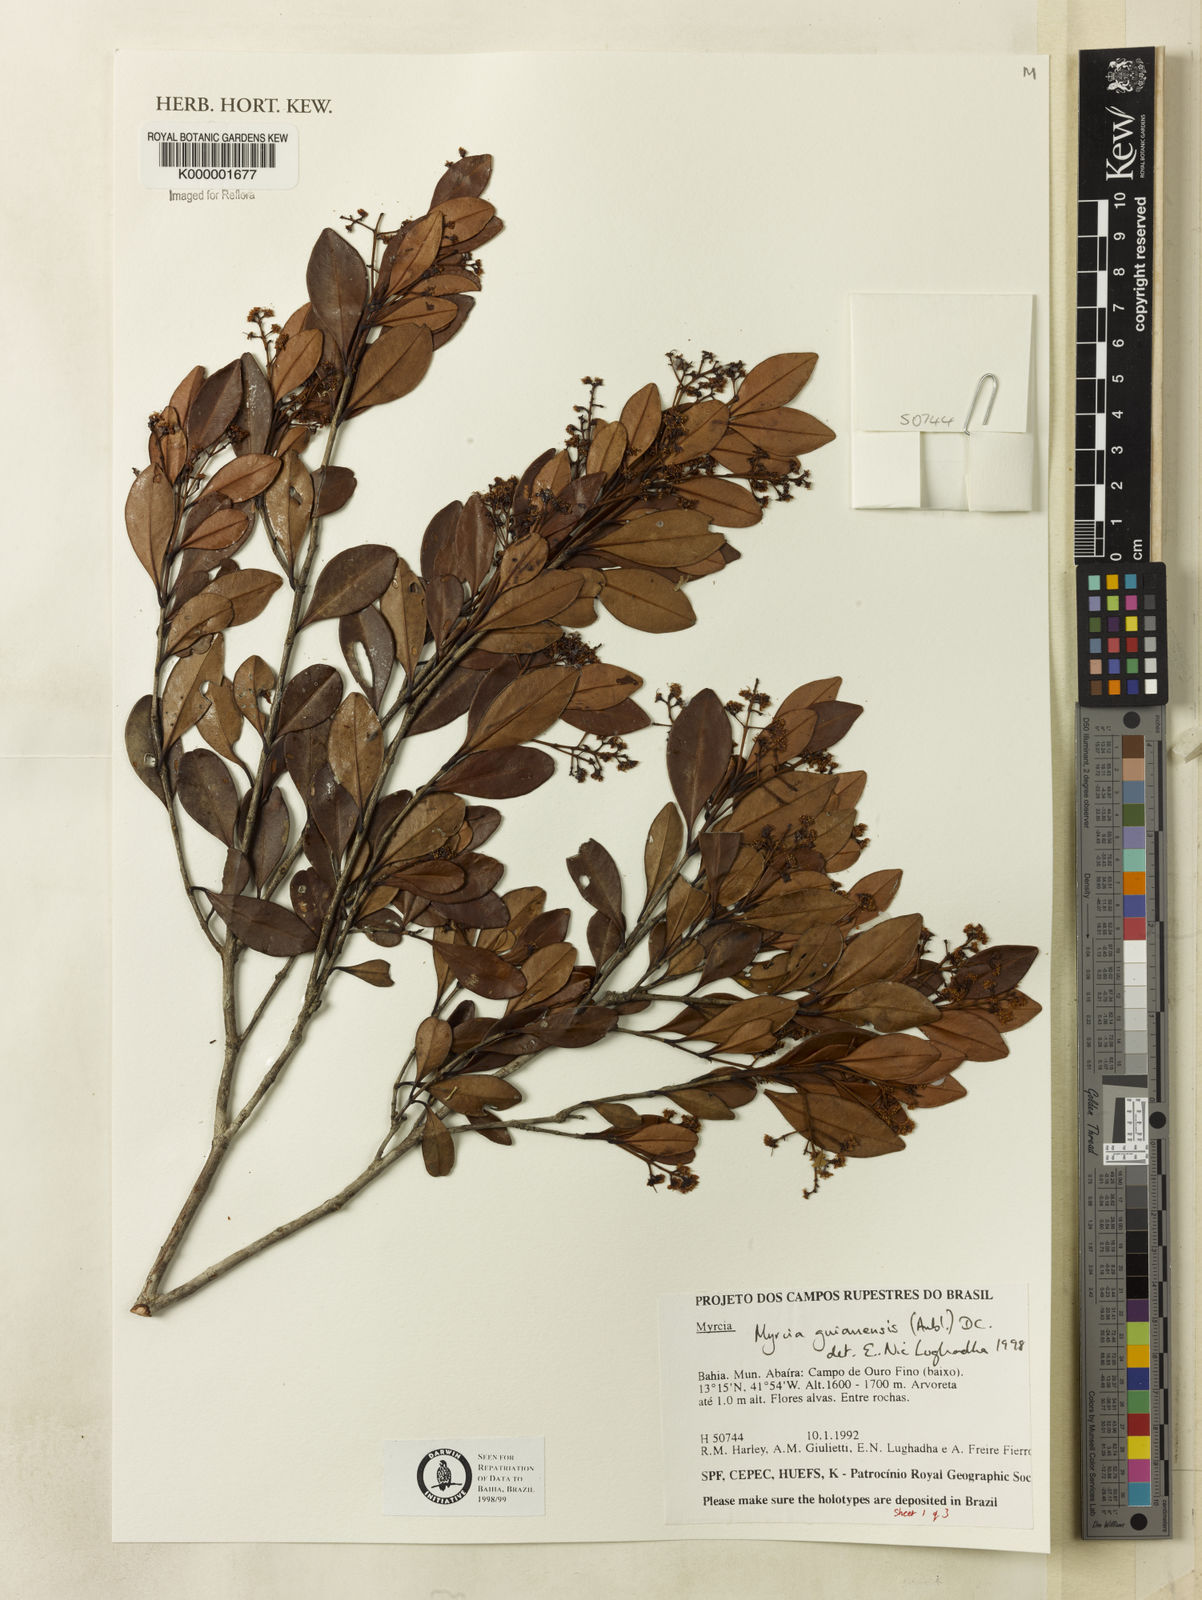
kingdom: Plantae
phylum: Tracheophyta
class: Magnoliopsida
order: Myrtales
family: Myrtaceae
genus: Myrcia
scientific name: Myrcia guianensis
